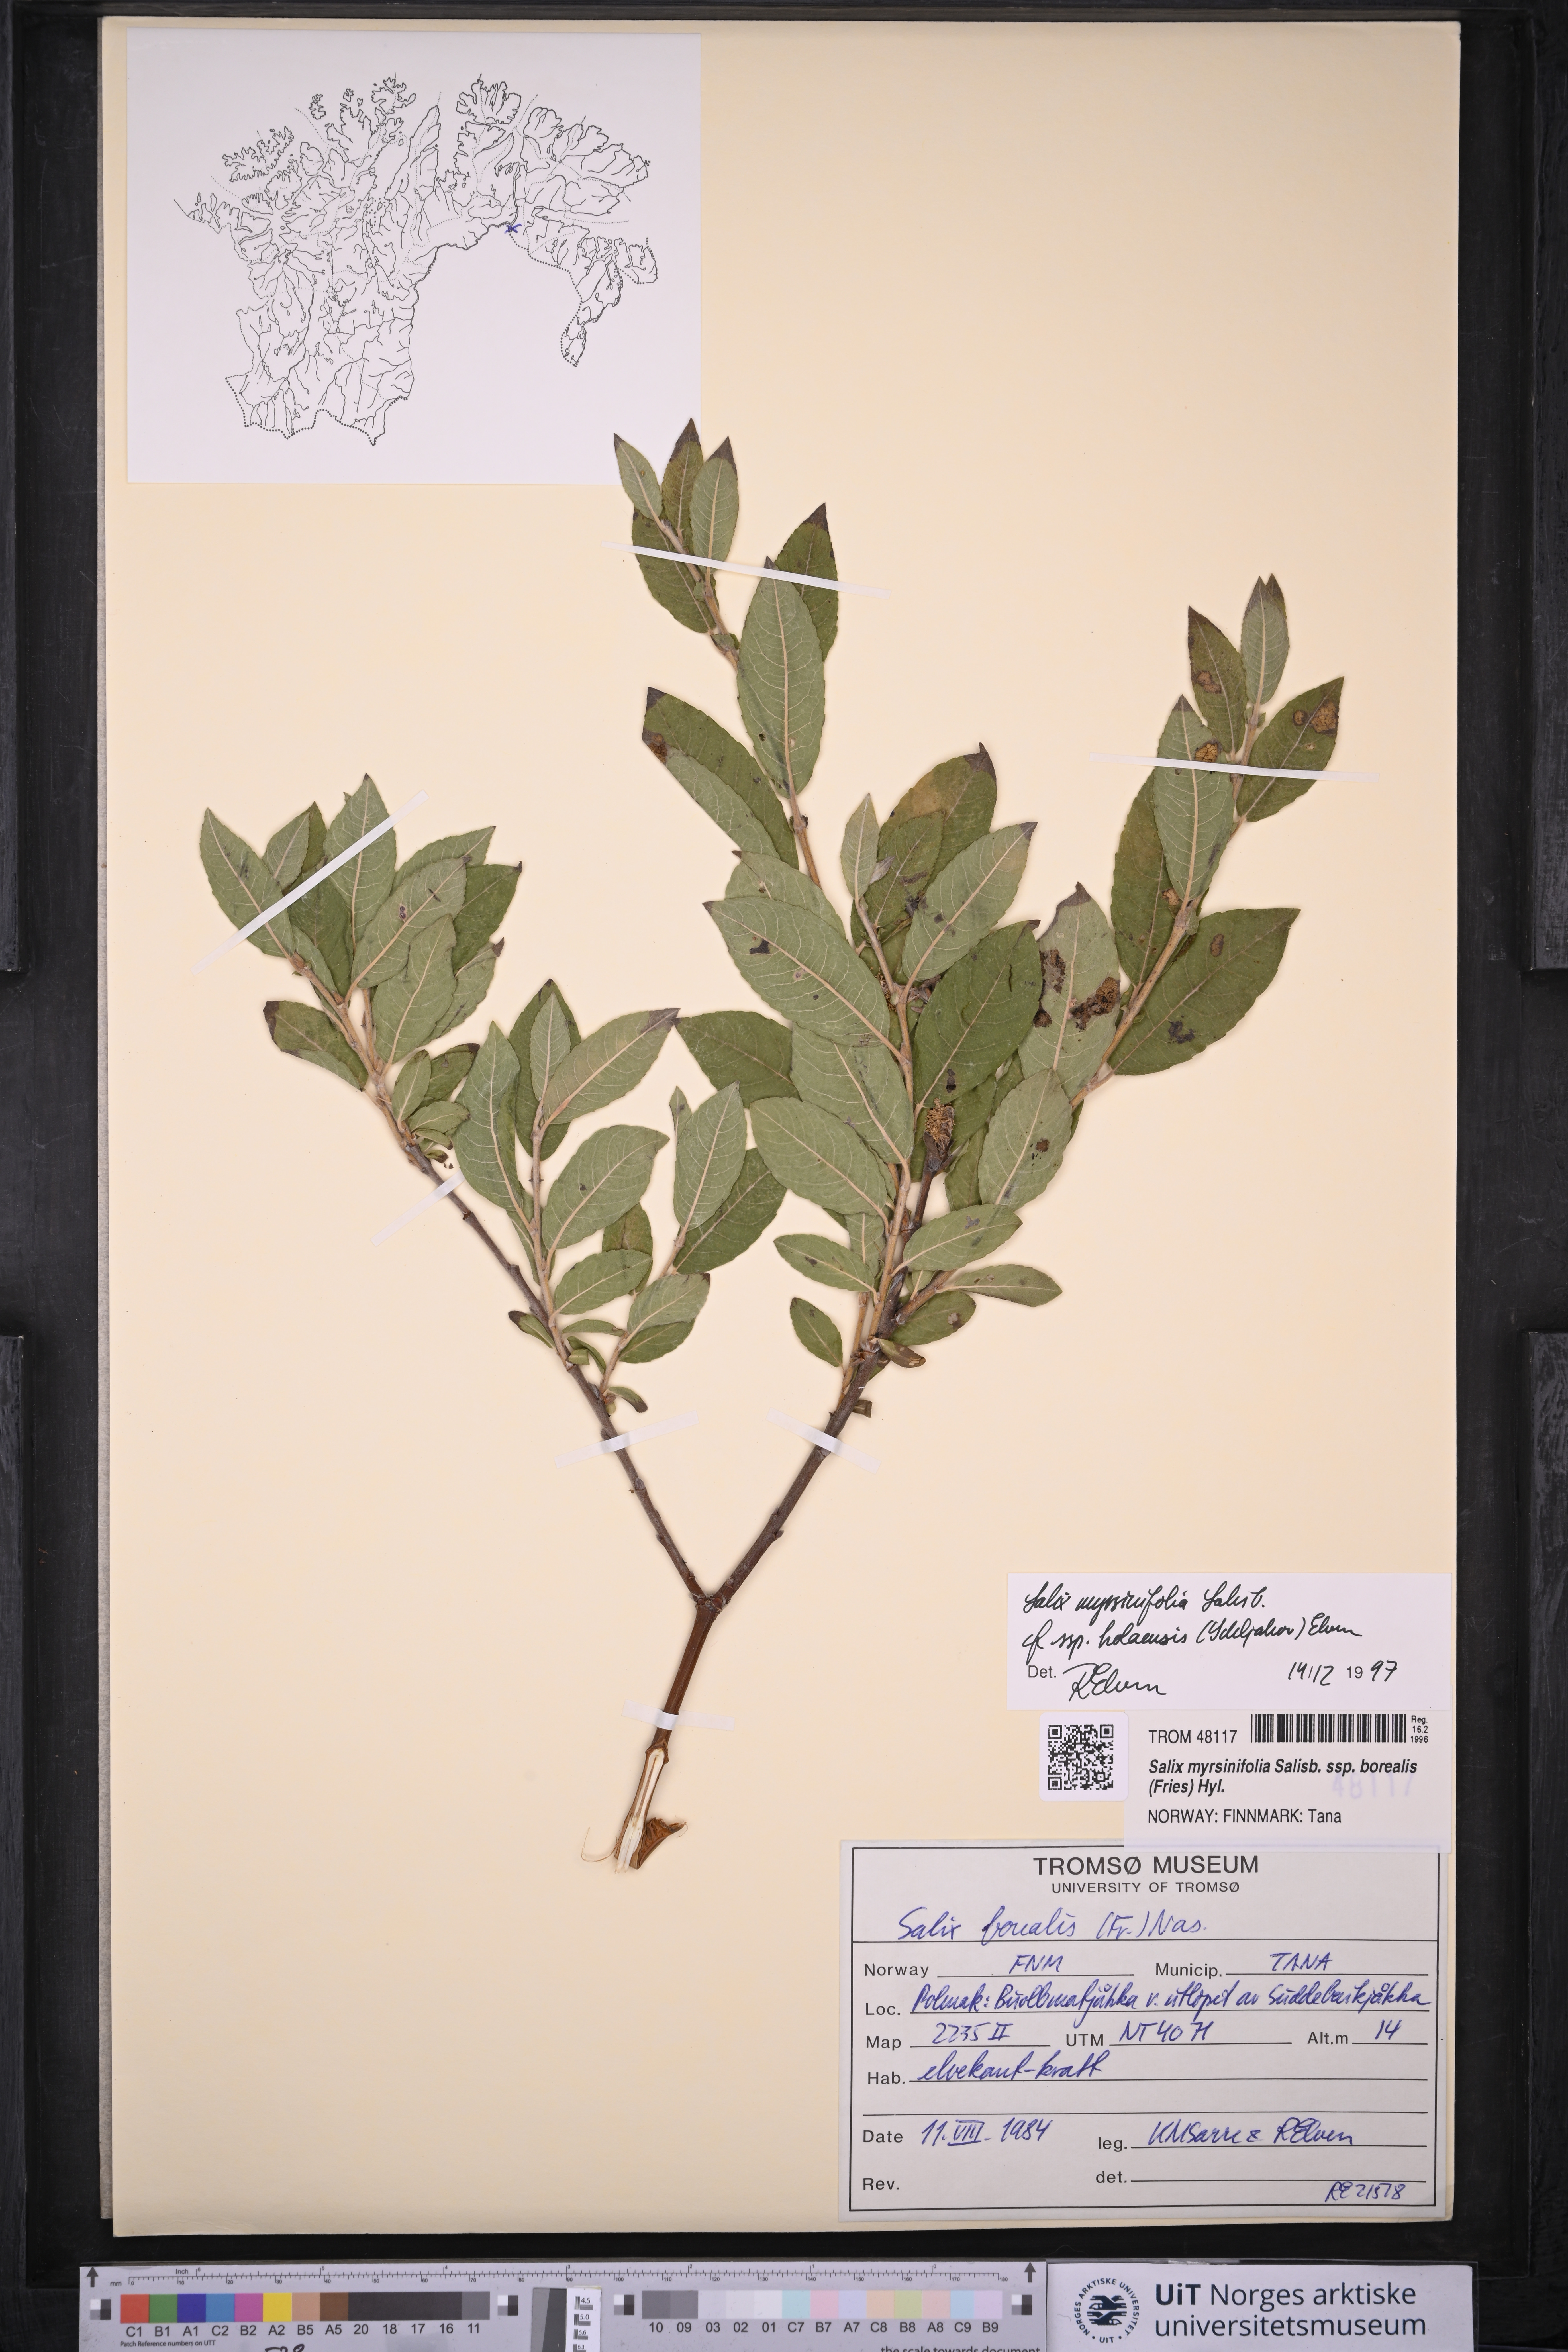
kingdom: Plantae
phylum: Tracheophyta
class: Magnoliopsida
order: Malpighiales
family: Salicaceae
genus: Salix
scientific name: Salix myrsinifolia
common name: Dark-leaved willow
